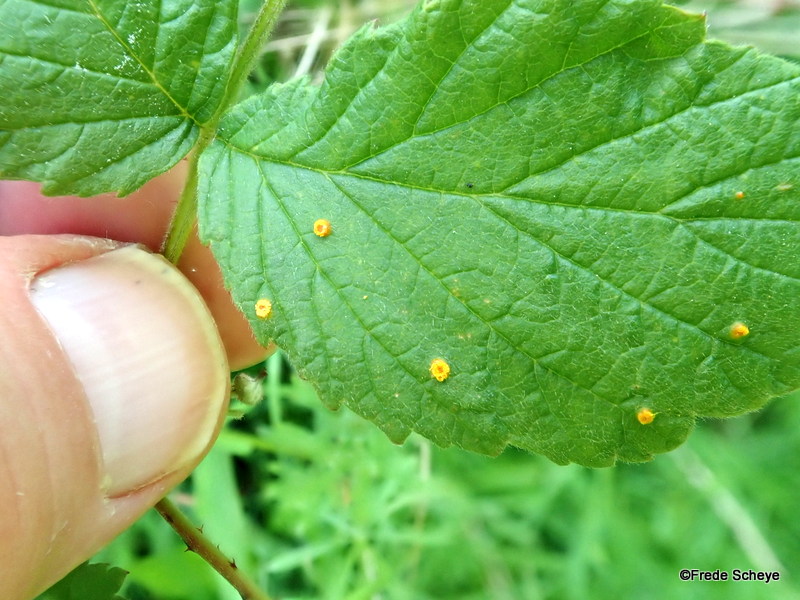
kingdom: Fungi
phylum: Basidiomycota
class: Pucciniomycetes
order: Pucciniales
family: Phragmidiaceae
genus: Phragmidium
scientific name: Phragmidium rubi-idaei
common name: hindbær-flercellerust
